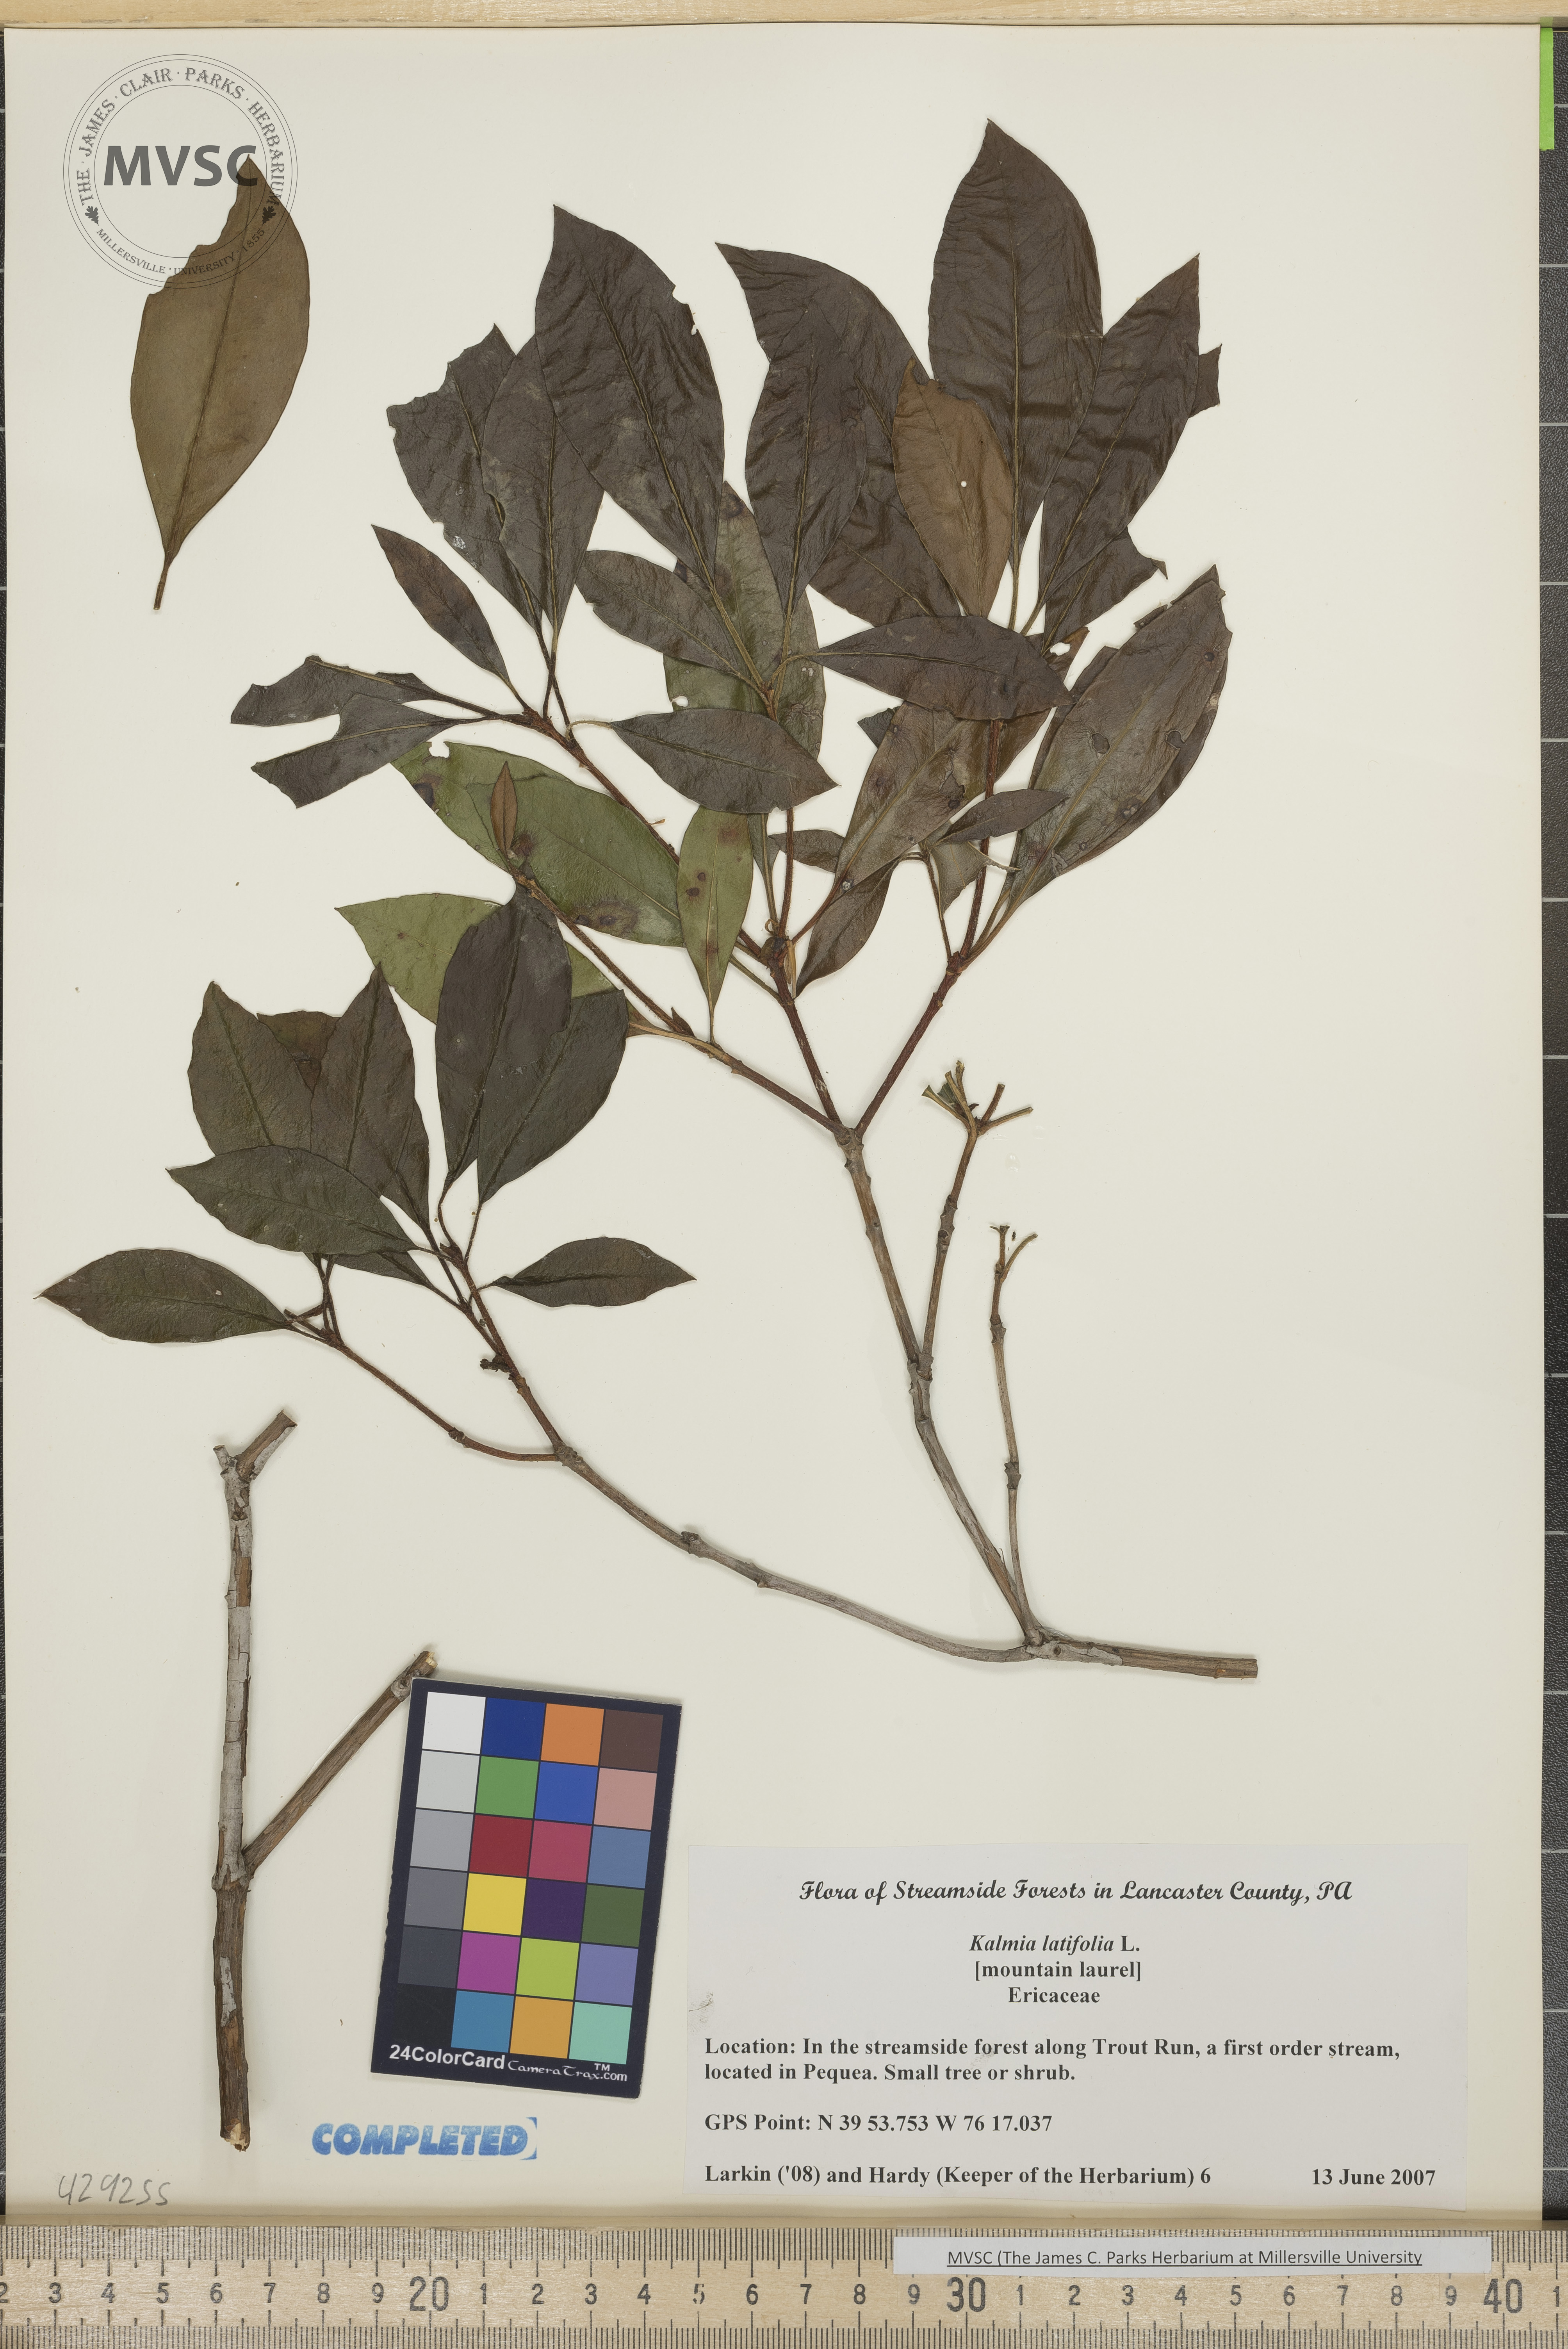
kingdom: Plantae
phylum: Tracheophyta
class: Magnoliopsida
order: Ericales
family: Ericaceae
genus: Kalmia
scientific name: Kalmia latifolia
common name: Mountain Laurel
